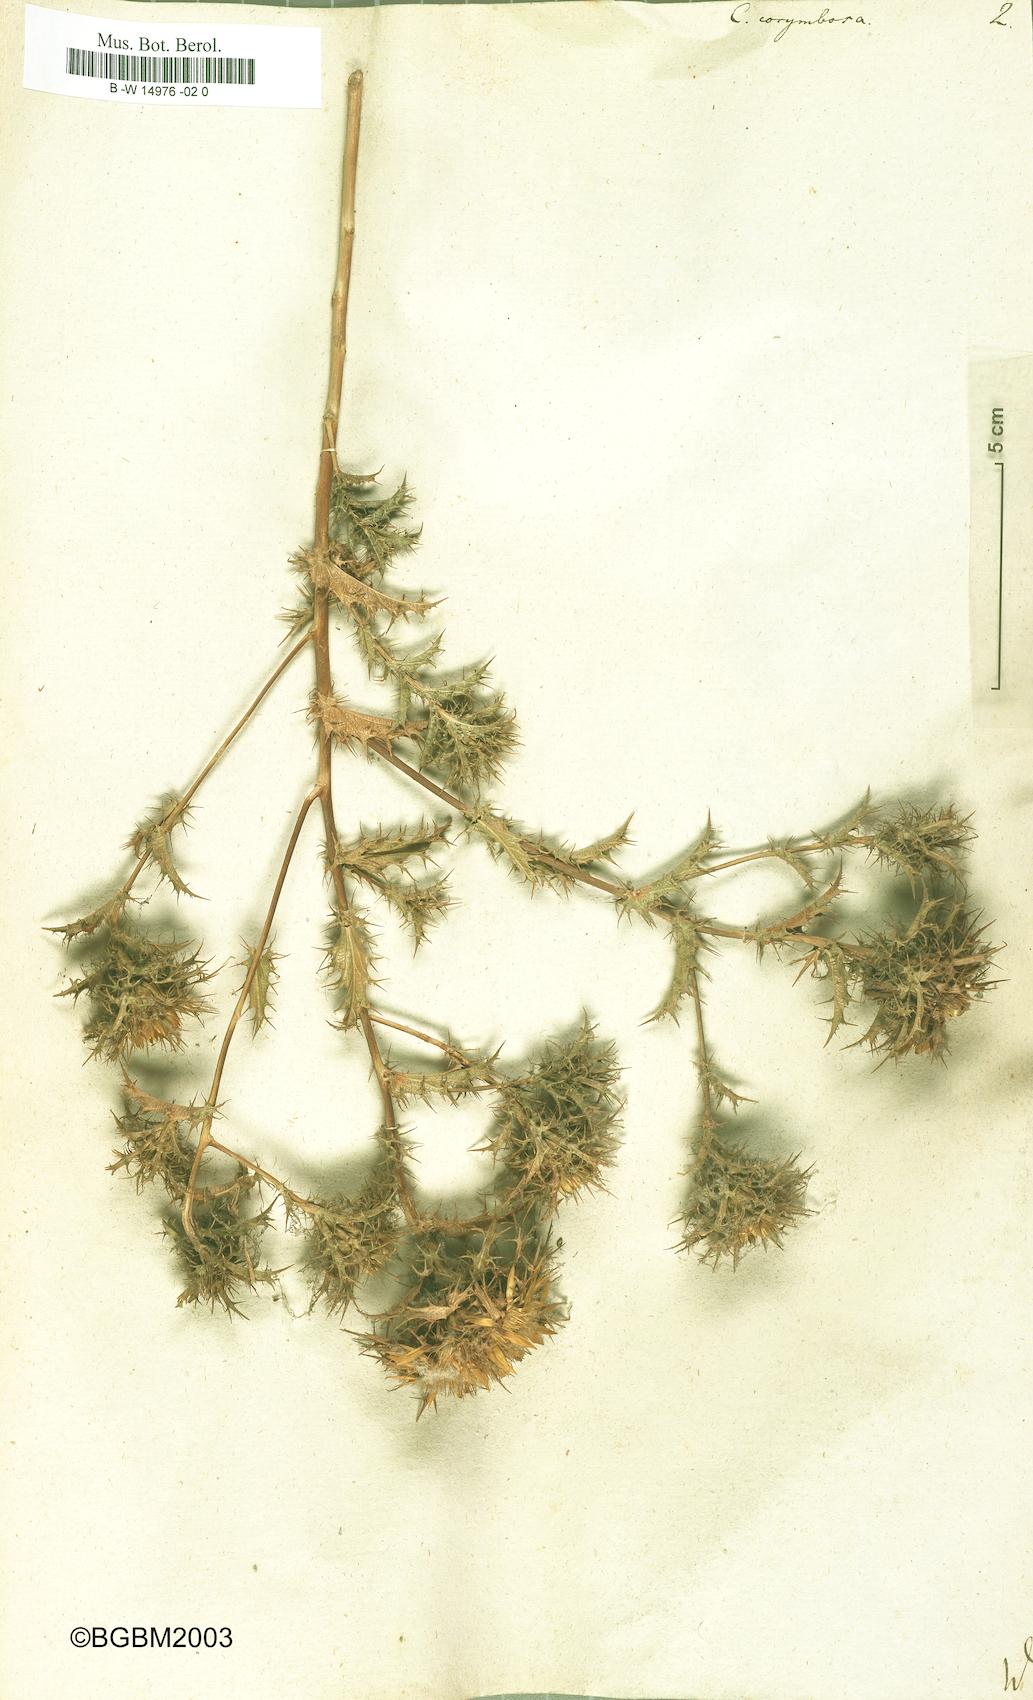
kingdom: Plantae
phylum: Tracheophyta
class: Magnoliopsida
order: Asterales
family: Asteraceae
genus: Carlina
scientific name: Carlina corymbosa
